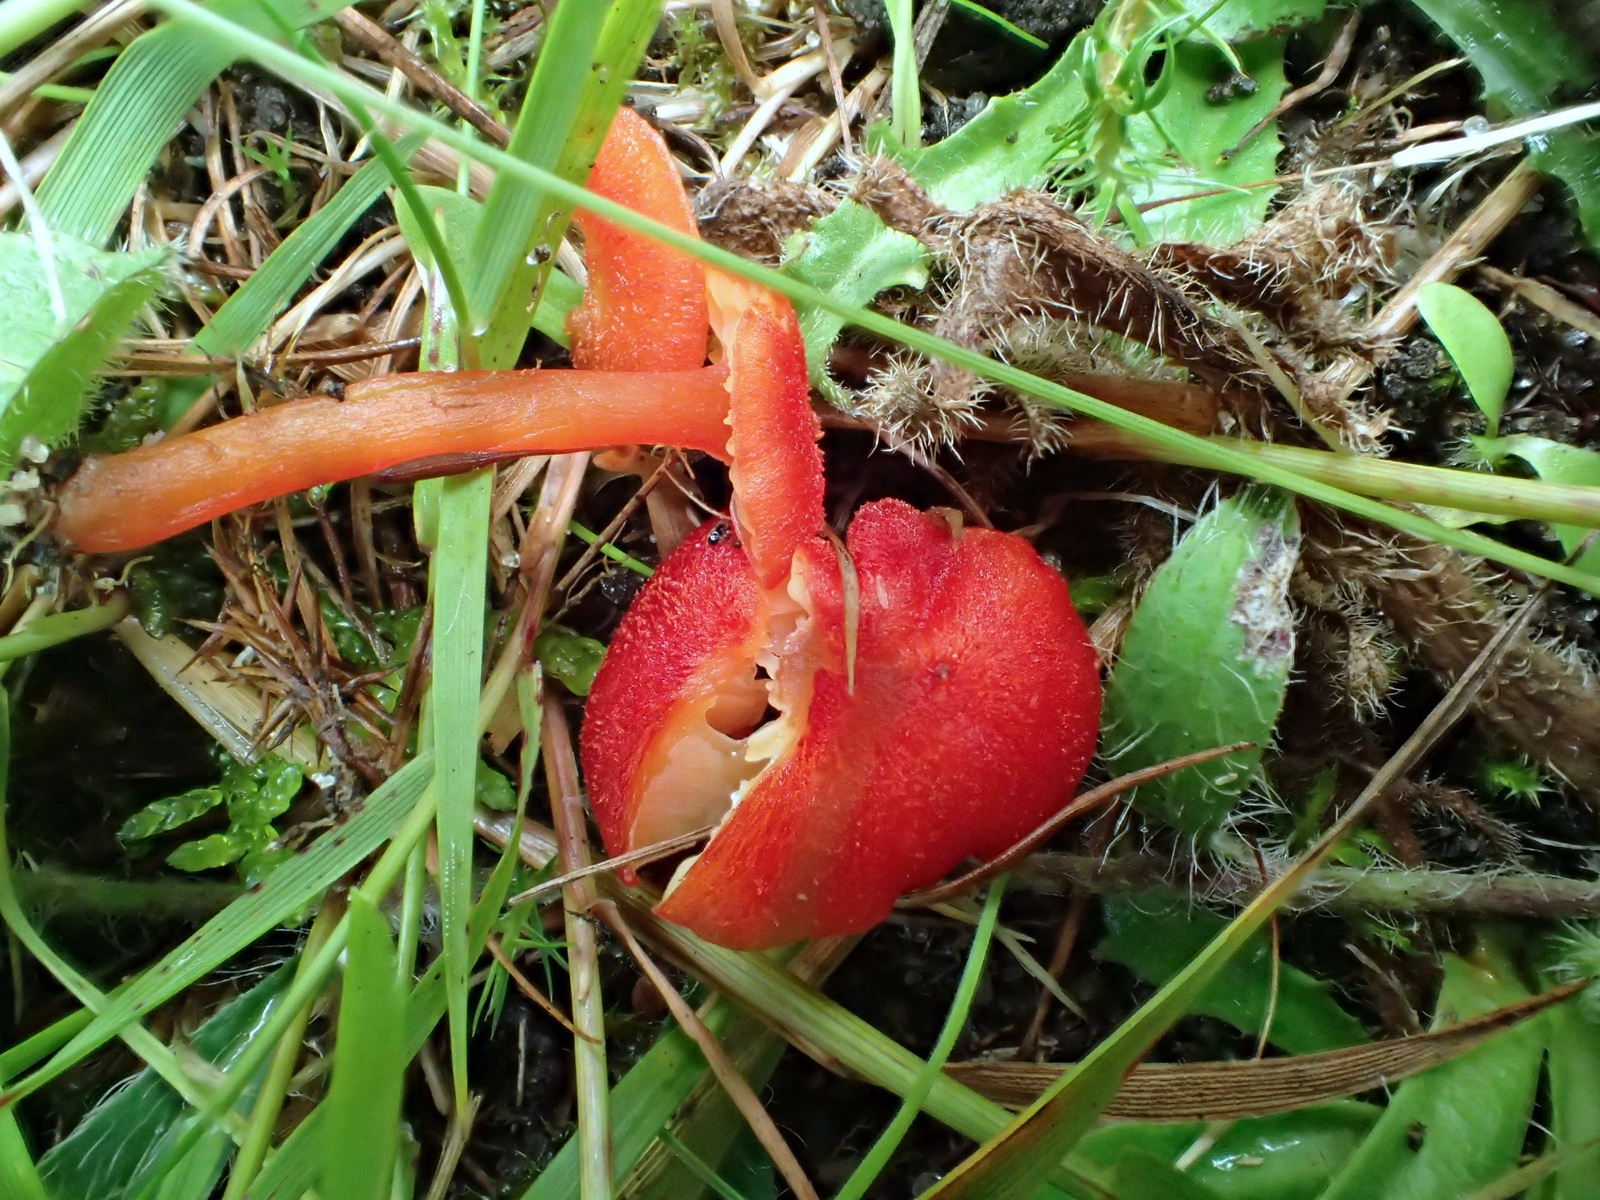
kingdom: Fungi
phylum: Basidiomycota
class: Agaricomycetes
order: Agaricales
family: Hygrophoraceae
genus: Hygrocybe
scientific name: Hygrocybe helobia
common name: hvidløgs-vokshat
